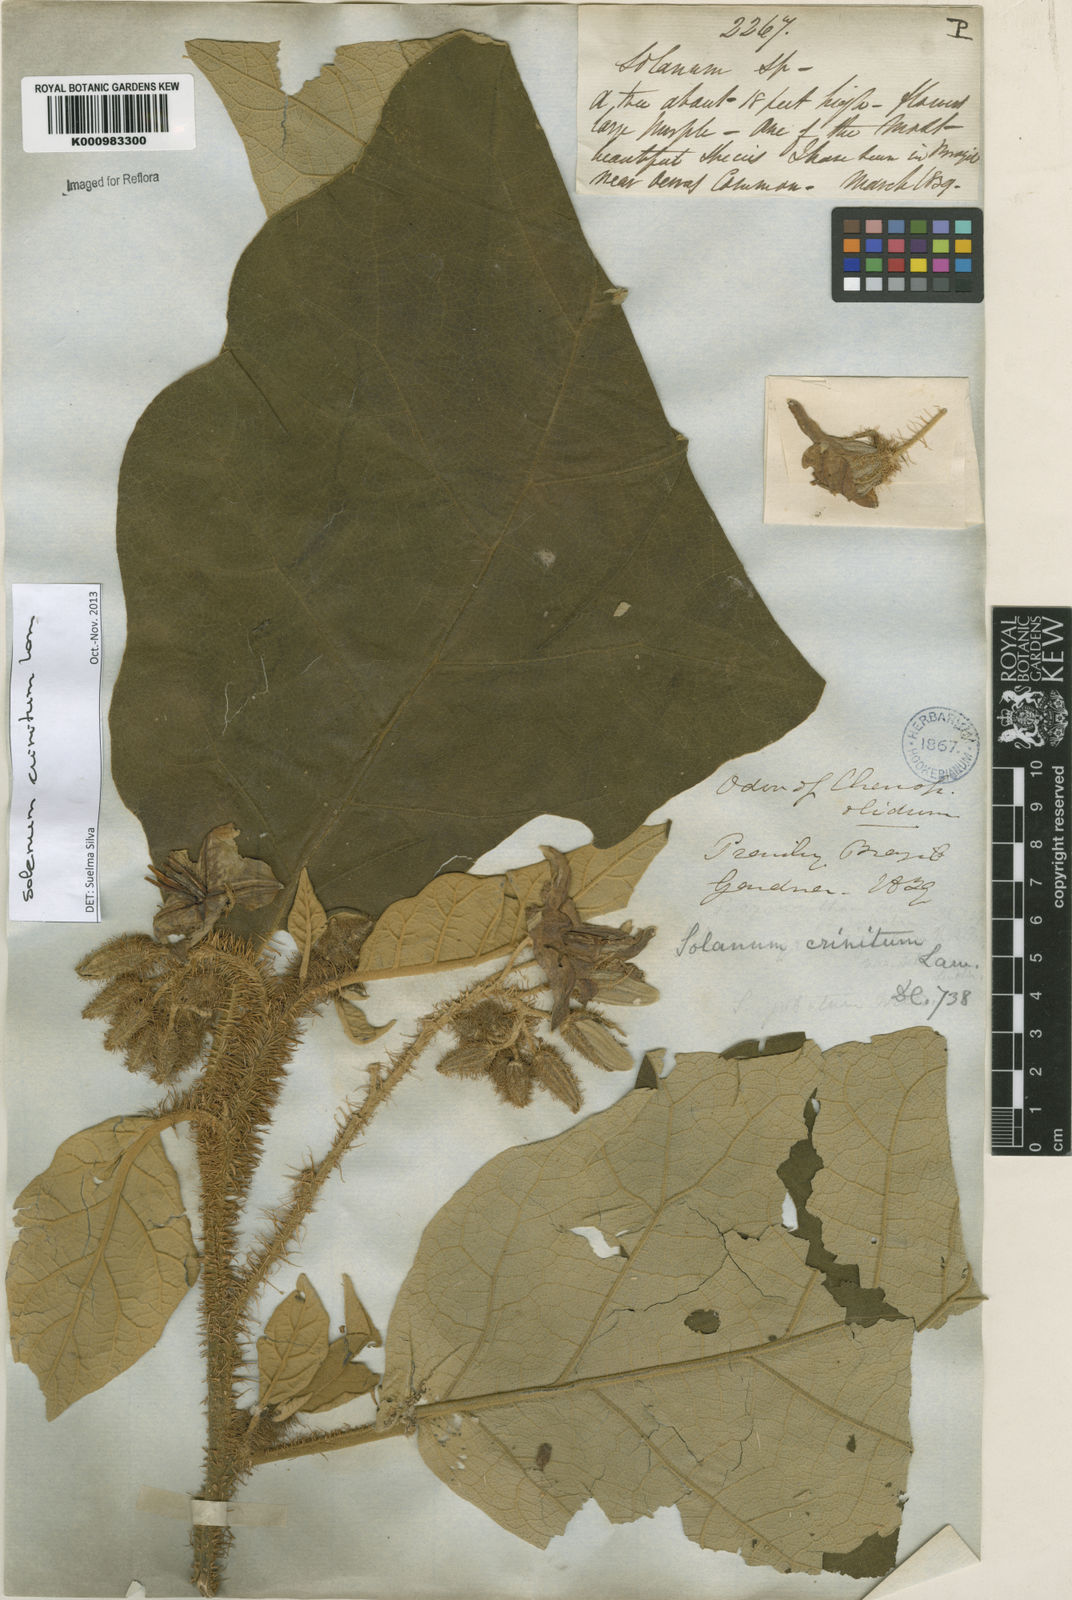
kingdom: Plantae
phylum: Tracheophyta
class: Magnoliopsida
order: Solanales
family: Solanaceae
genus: Solanum
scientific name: Solanum crinitum
